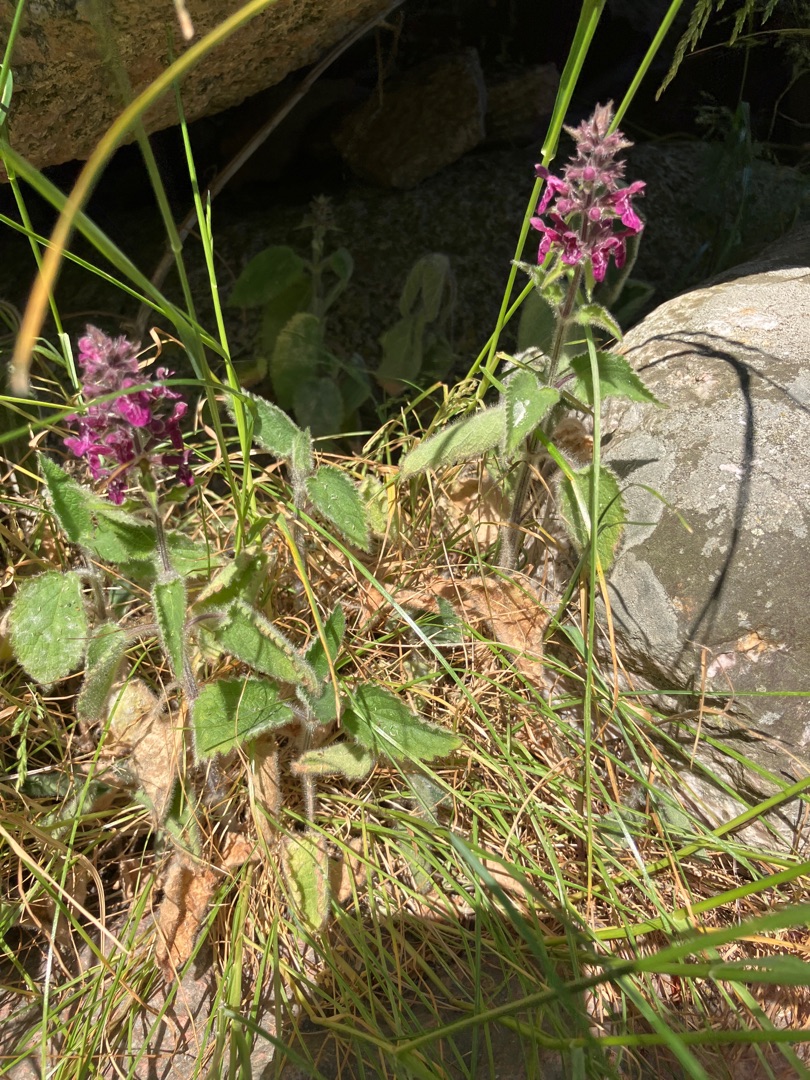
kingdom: Plantae
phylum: Tracheophyta
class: Magnoliopsida
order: Lamiales
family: Lamiaceae
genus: Stachys
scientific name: Stachys sylvatica
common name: Skov-galtetand
